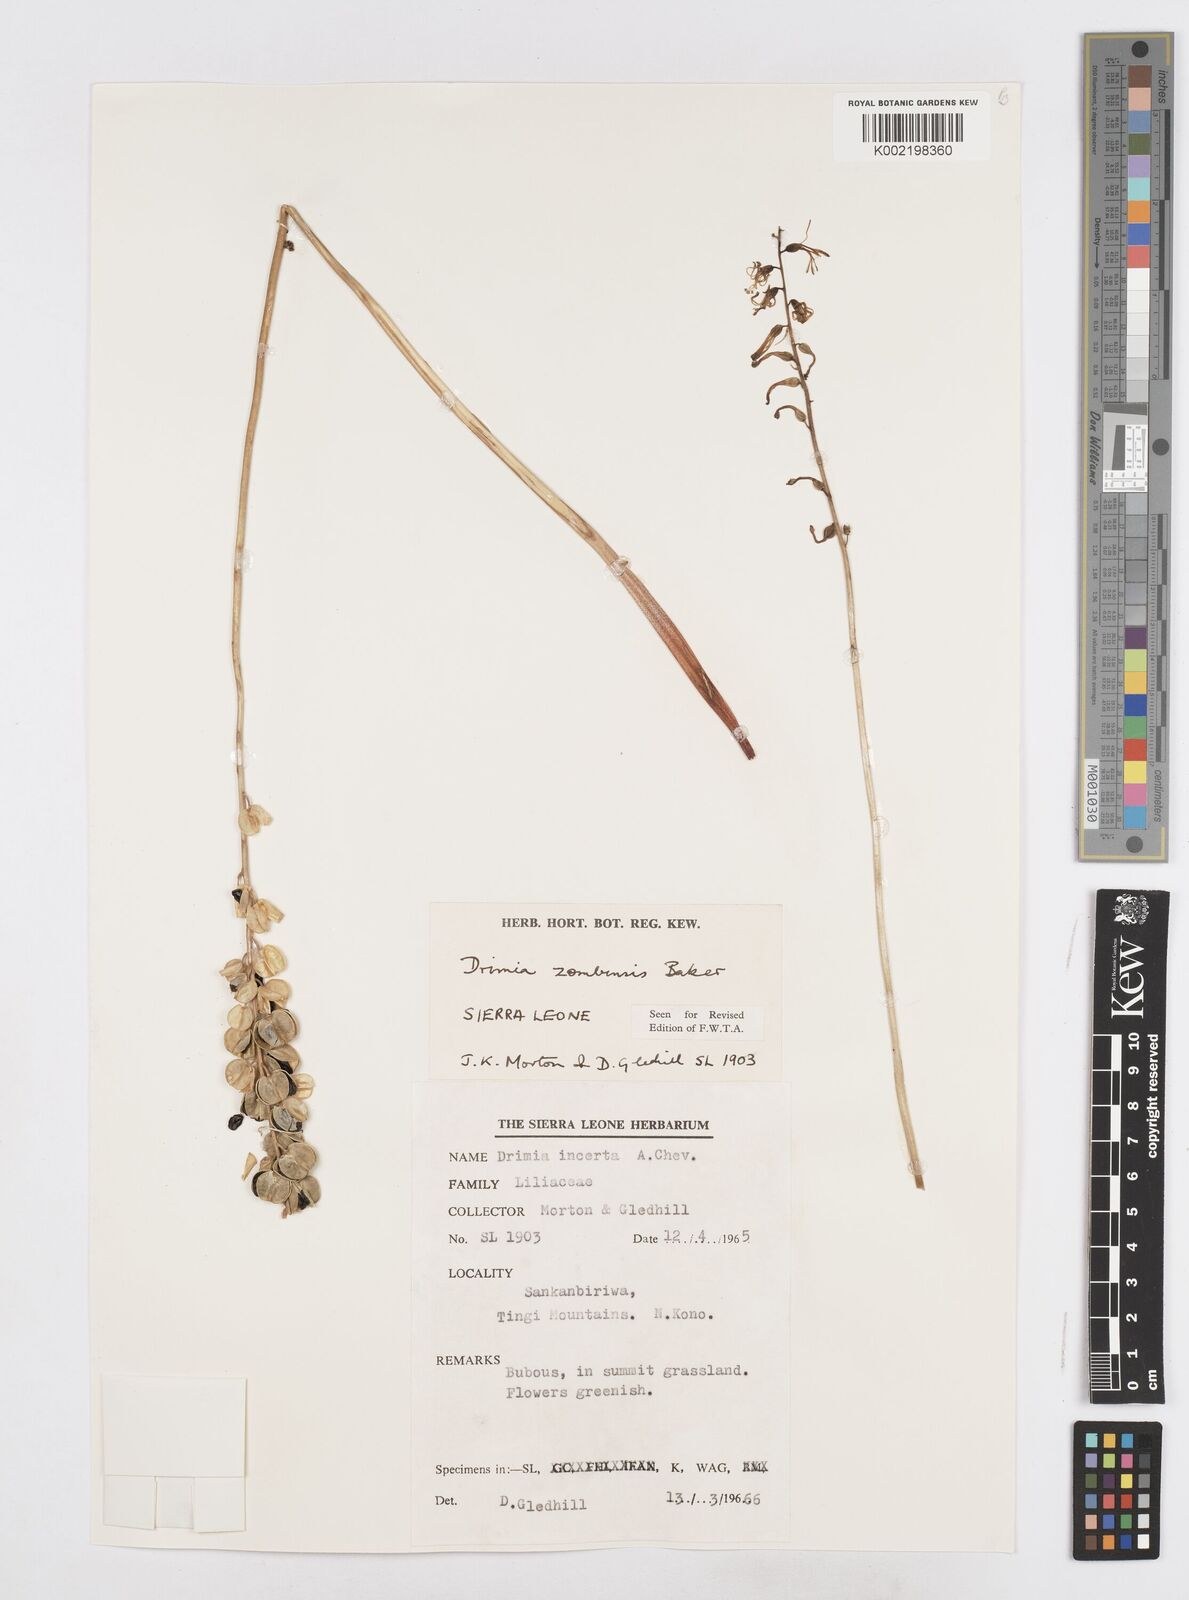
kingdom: Plantae
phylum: Tracheophyta
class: Liliopsida
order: Asparagales
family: Asparagaceae
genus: Drimia
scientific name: Drimia elata
